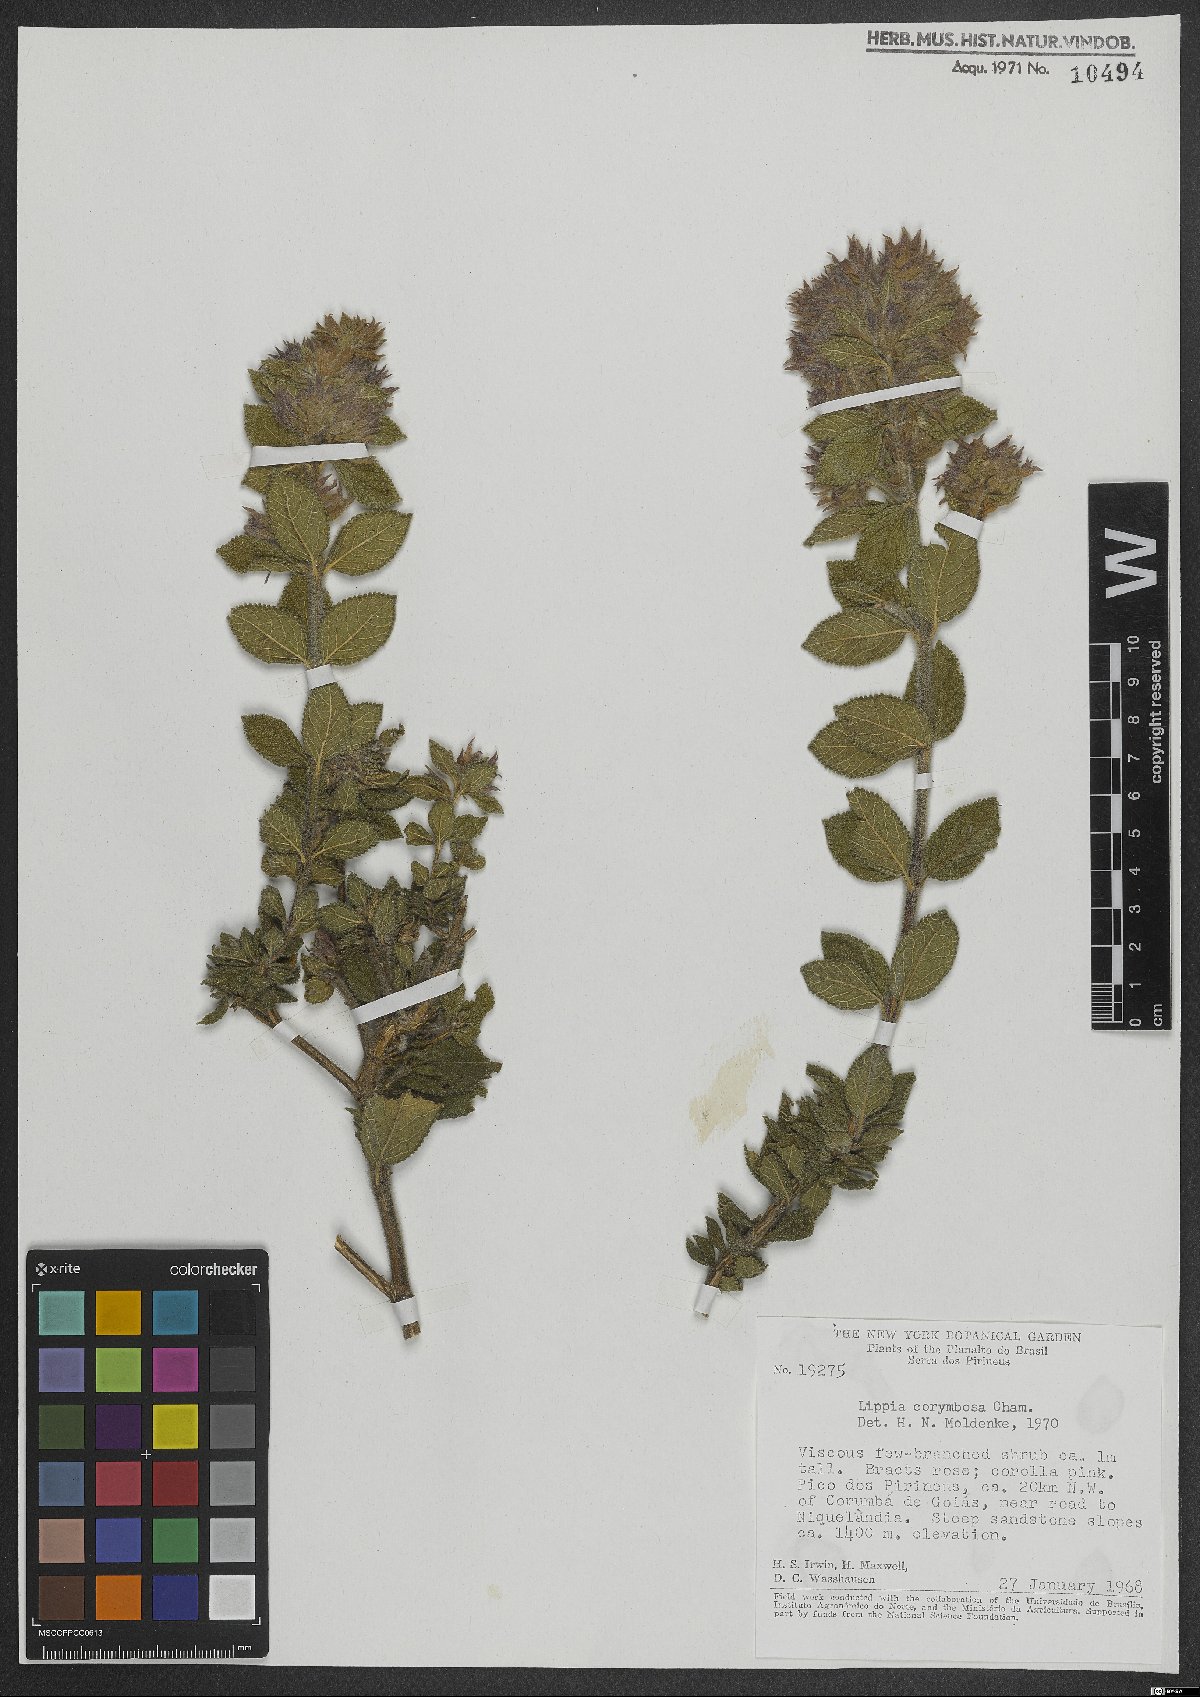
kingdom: Plantae
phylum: Tracheophyta
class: Magnoliopsida
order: Lamiales
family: Verbenaceae
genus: Lippia
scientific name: Lippia corymbosa
